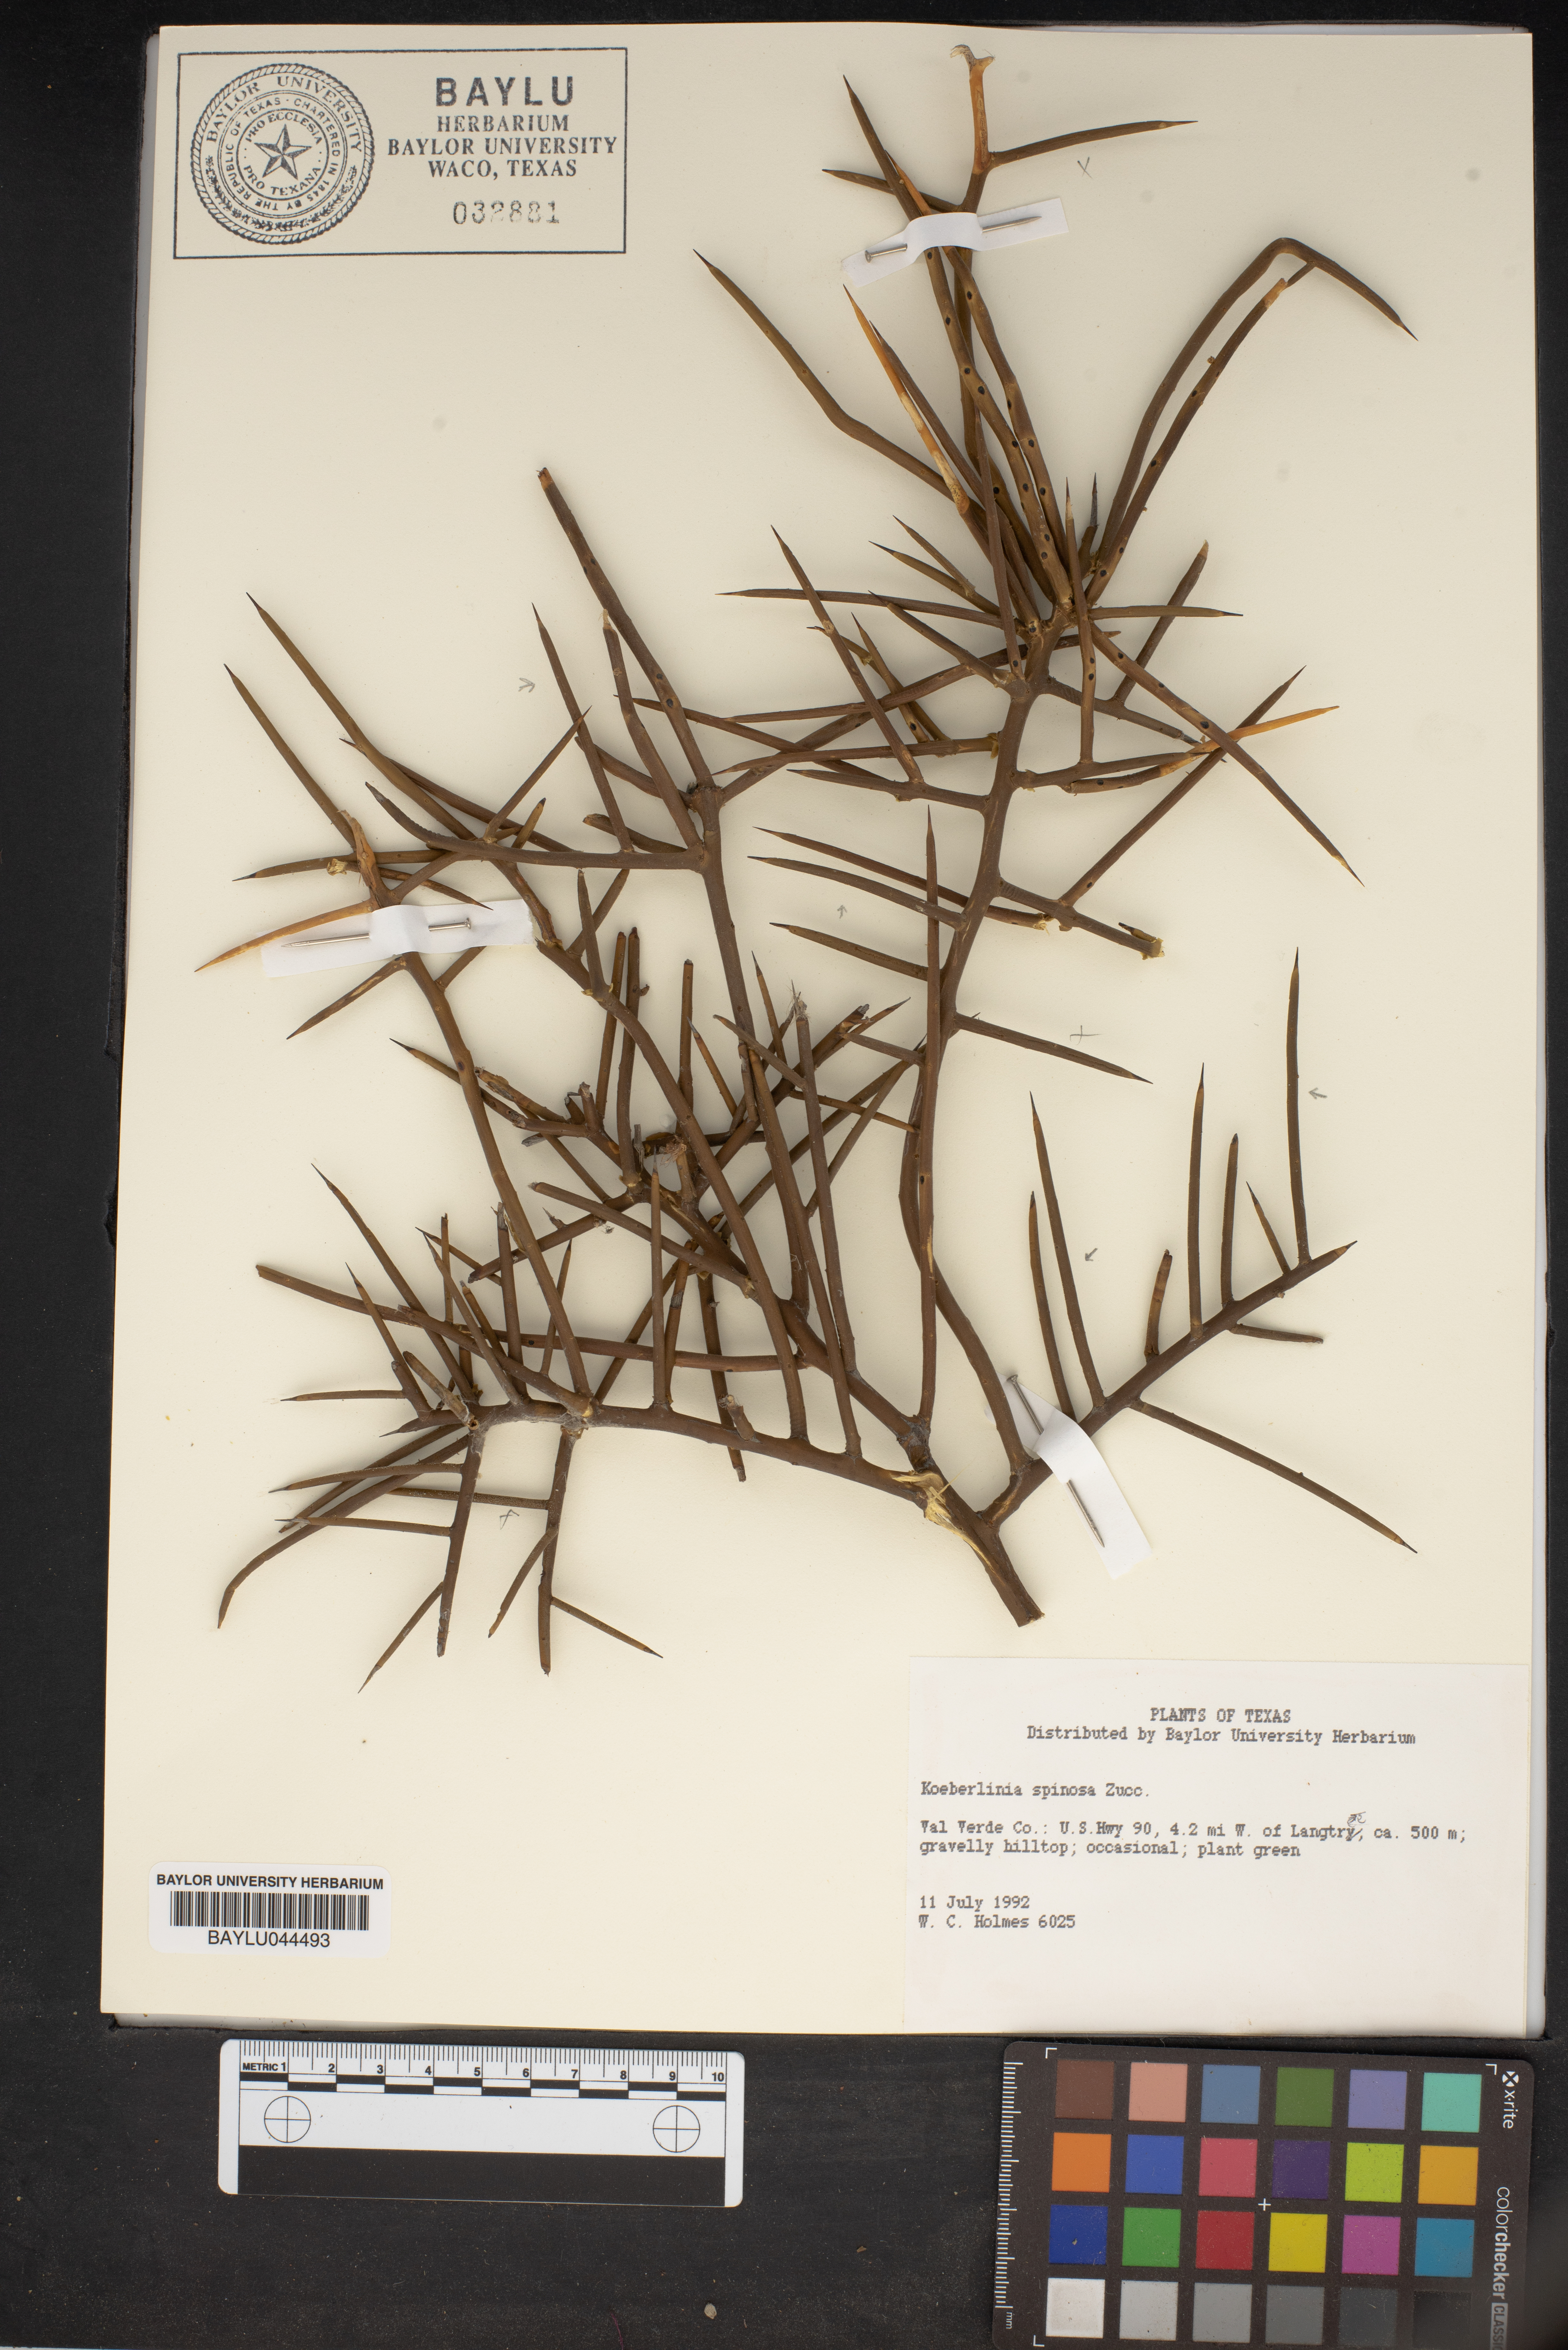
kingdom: Plantae
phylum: Tracheophyta
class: Magnoliopsida
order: Brassicales
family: Koeberliniaceae
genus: Koeberlinia
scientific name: Koeberlinia spinosa
